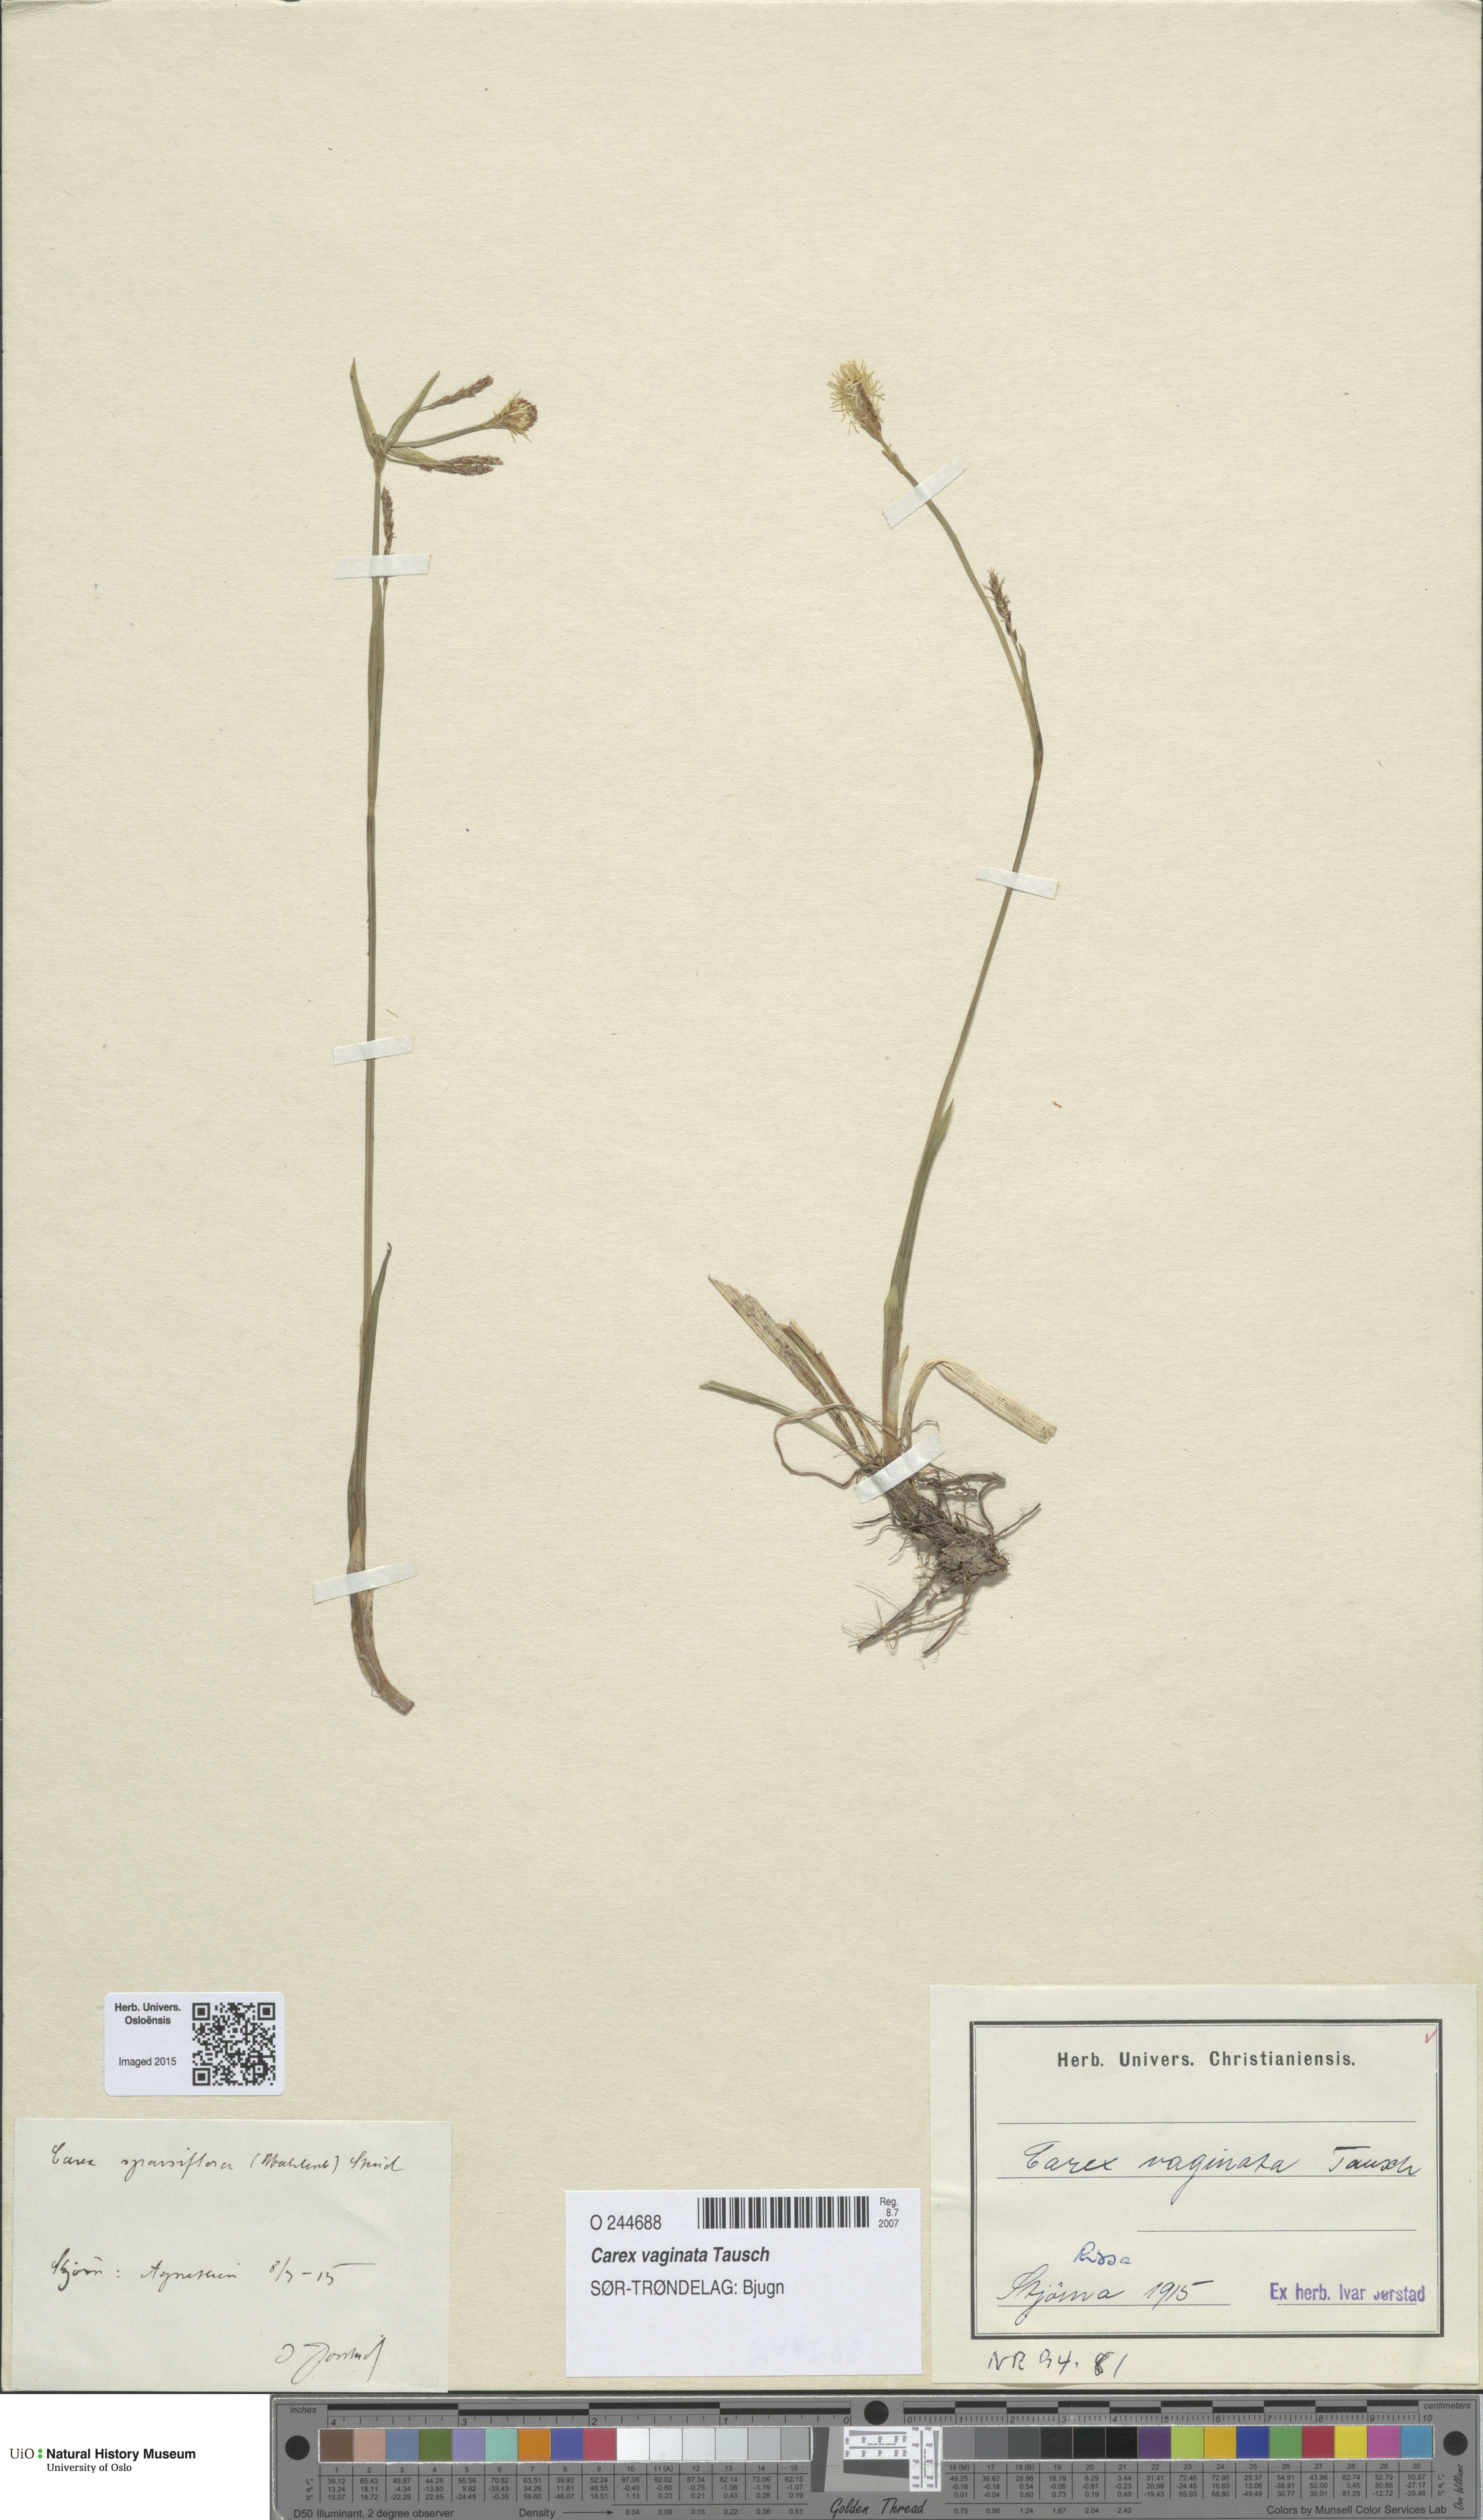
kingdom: Plantae
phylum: Tracheophyta
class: Liliopsida
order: Poales
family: Cyperaceae
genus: Carex
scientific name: Carex vaginata
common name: Sheathed sedge
